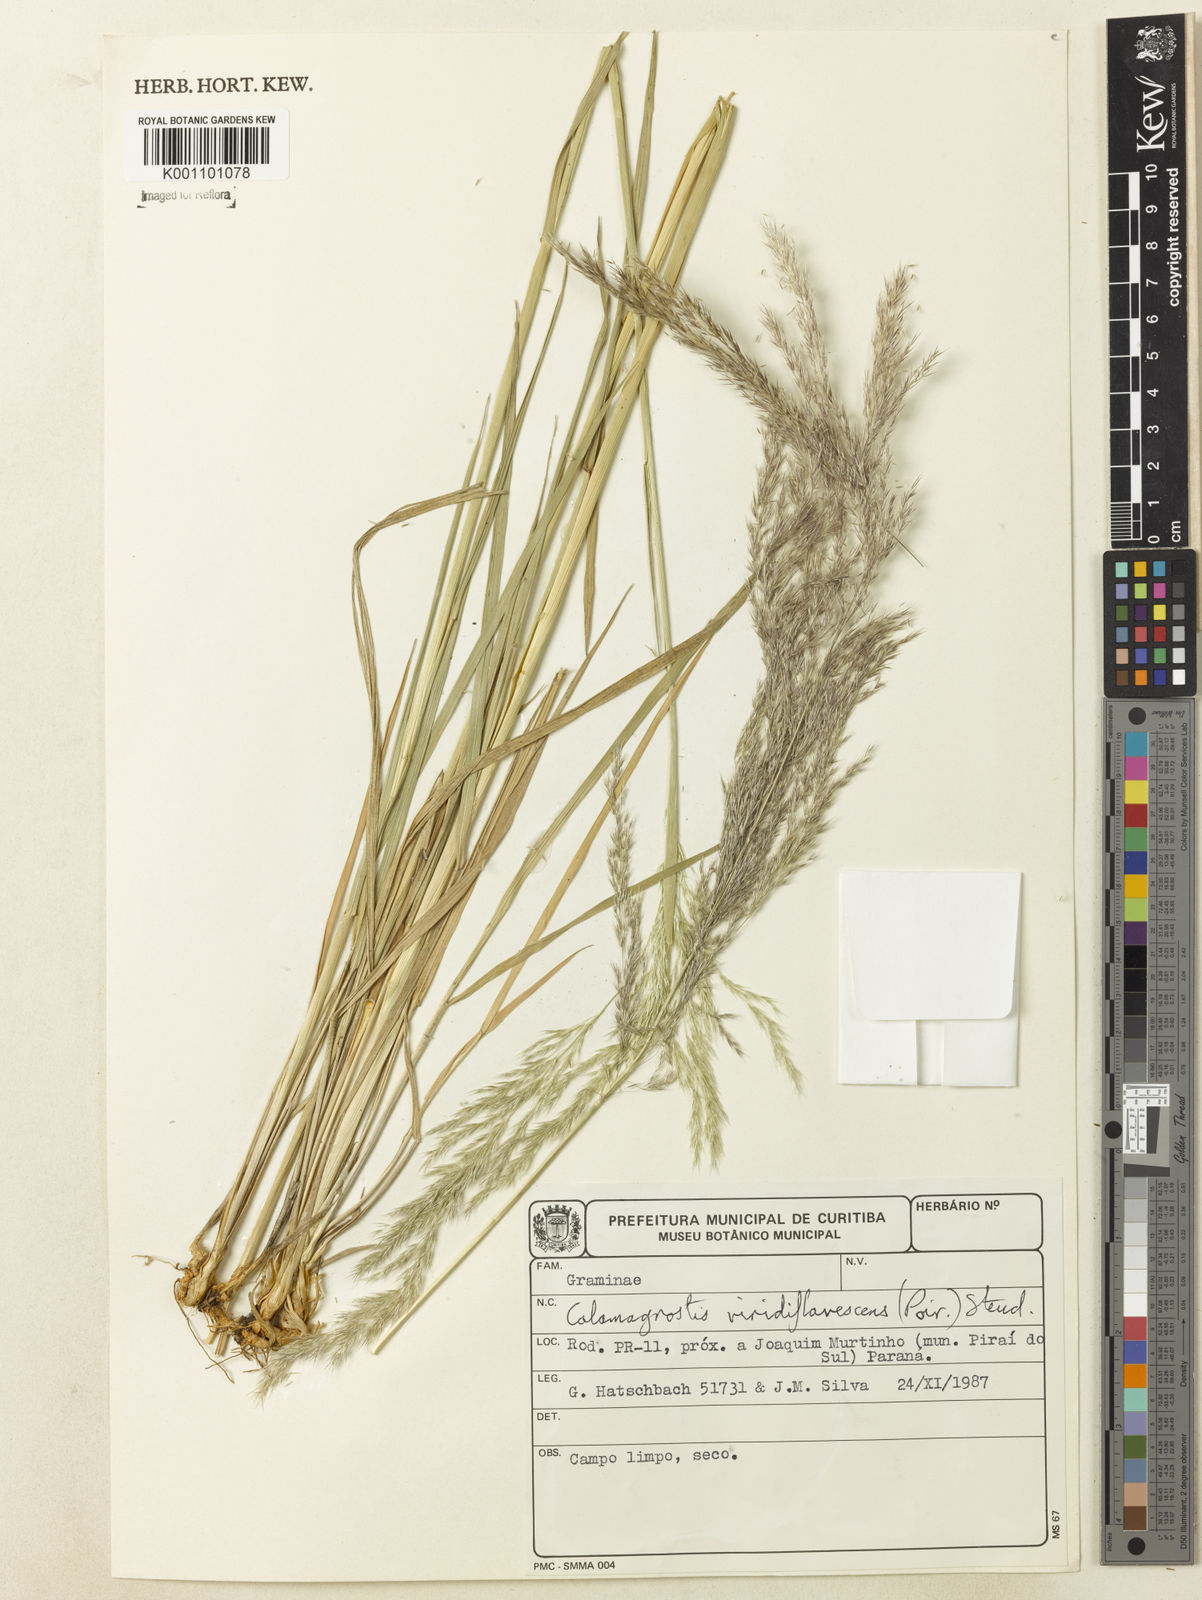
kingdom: Plantae
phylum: Tracheophyta
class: Liliopsida
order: Poales
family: Poaceae
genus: Cinnagrostis
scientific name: Cinnagrostis viridiflavescens
